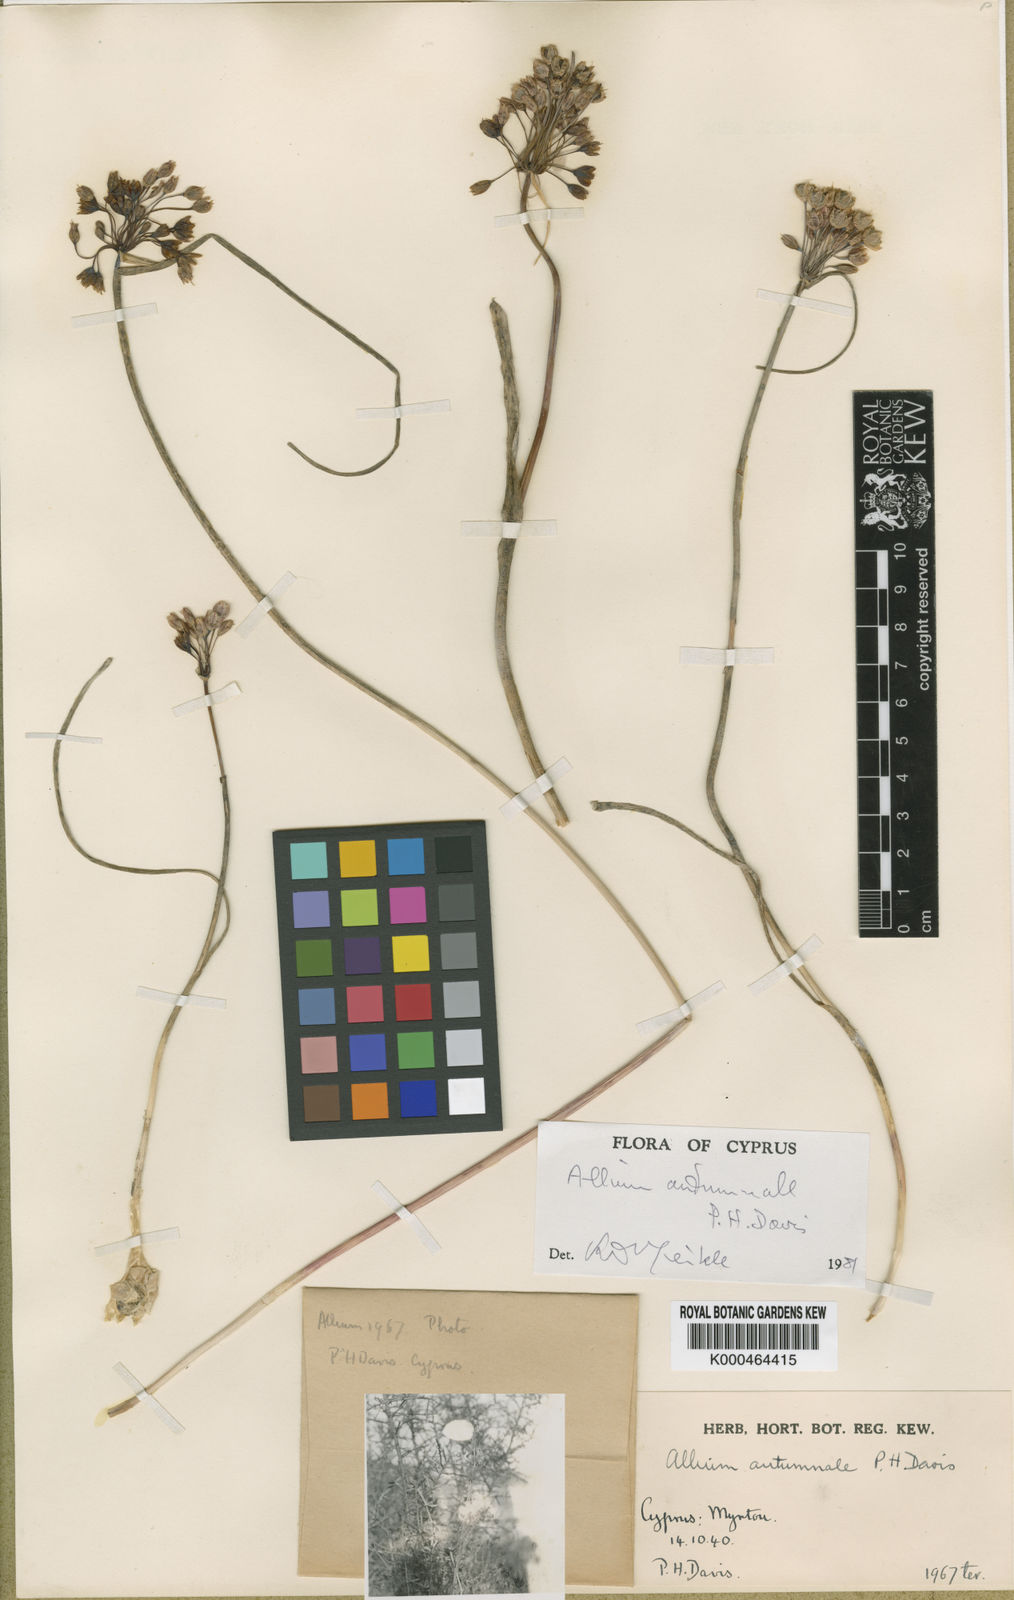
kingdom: Plantae
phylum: Tracheophyta
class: Liliopsida
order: Asparagales
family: Amaryllidaceae
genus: Allium
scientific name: Allium autumnale
